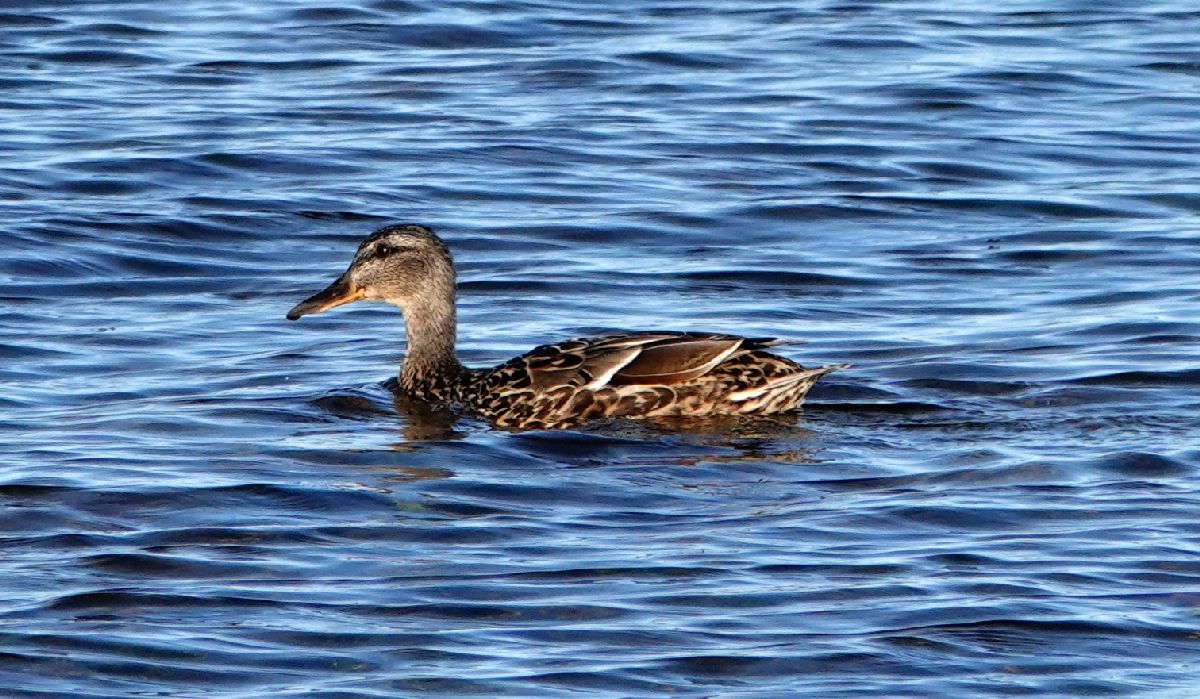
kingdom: Animalia
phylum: Chordata
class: Aves
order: Anseriformes
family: Anatidae
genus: Anas
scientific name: Anas platyrhynchos
